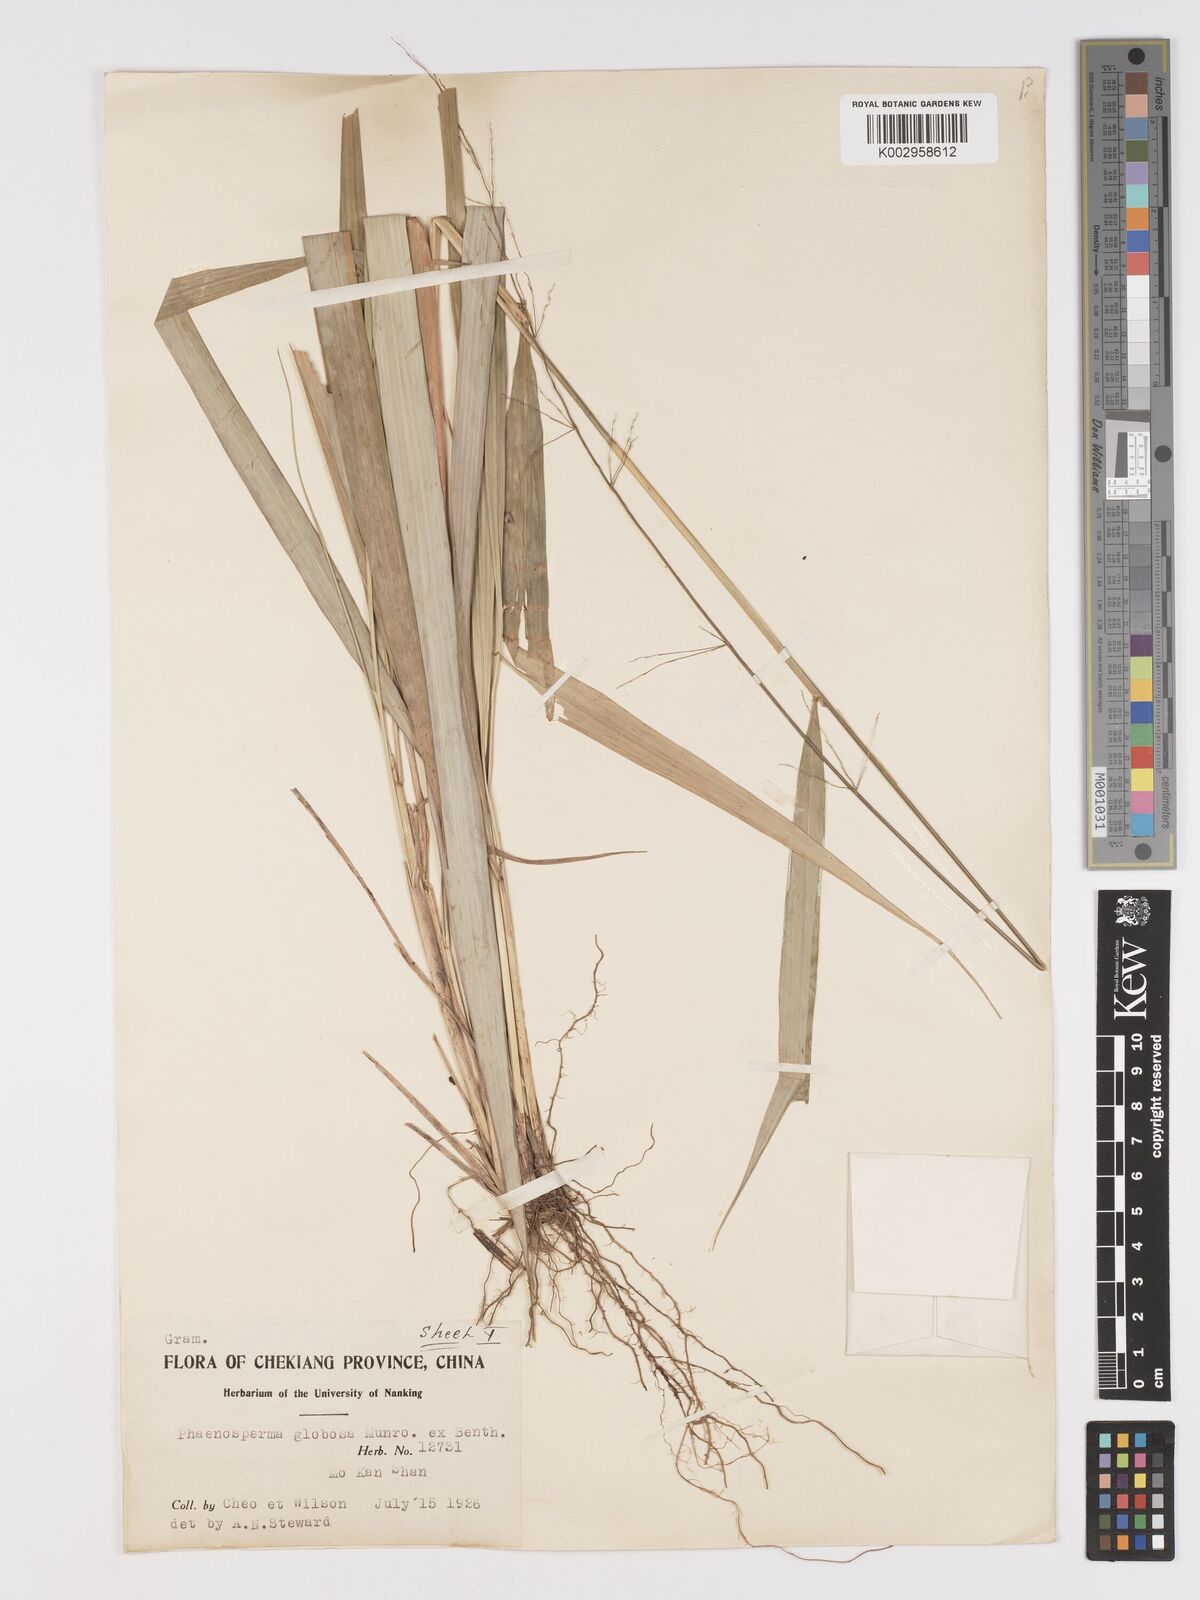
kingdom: Plantae
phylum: Tracheophyta
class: Liliopsida
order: Poales
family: Poaceae
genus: Phaenosperma
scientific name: Phaenosperma globosum
